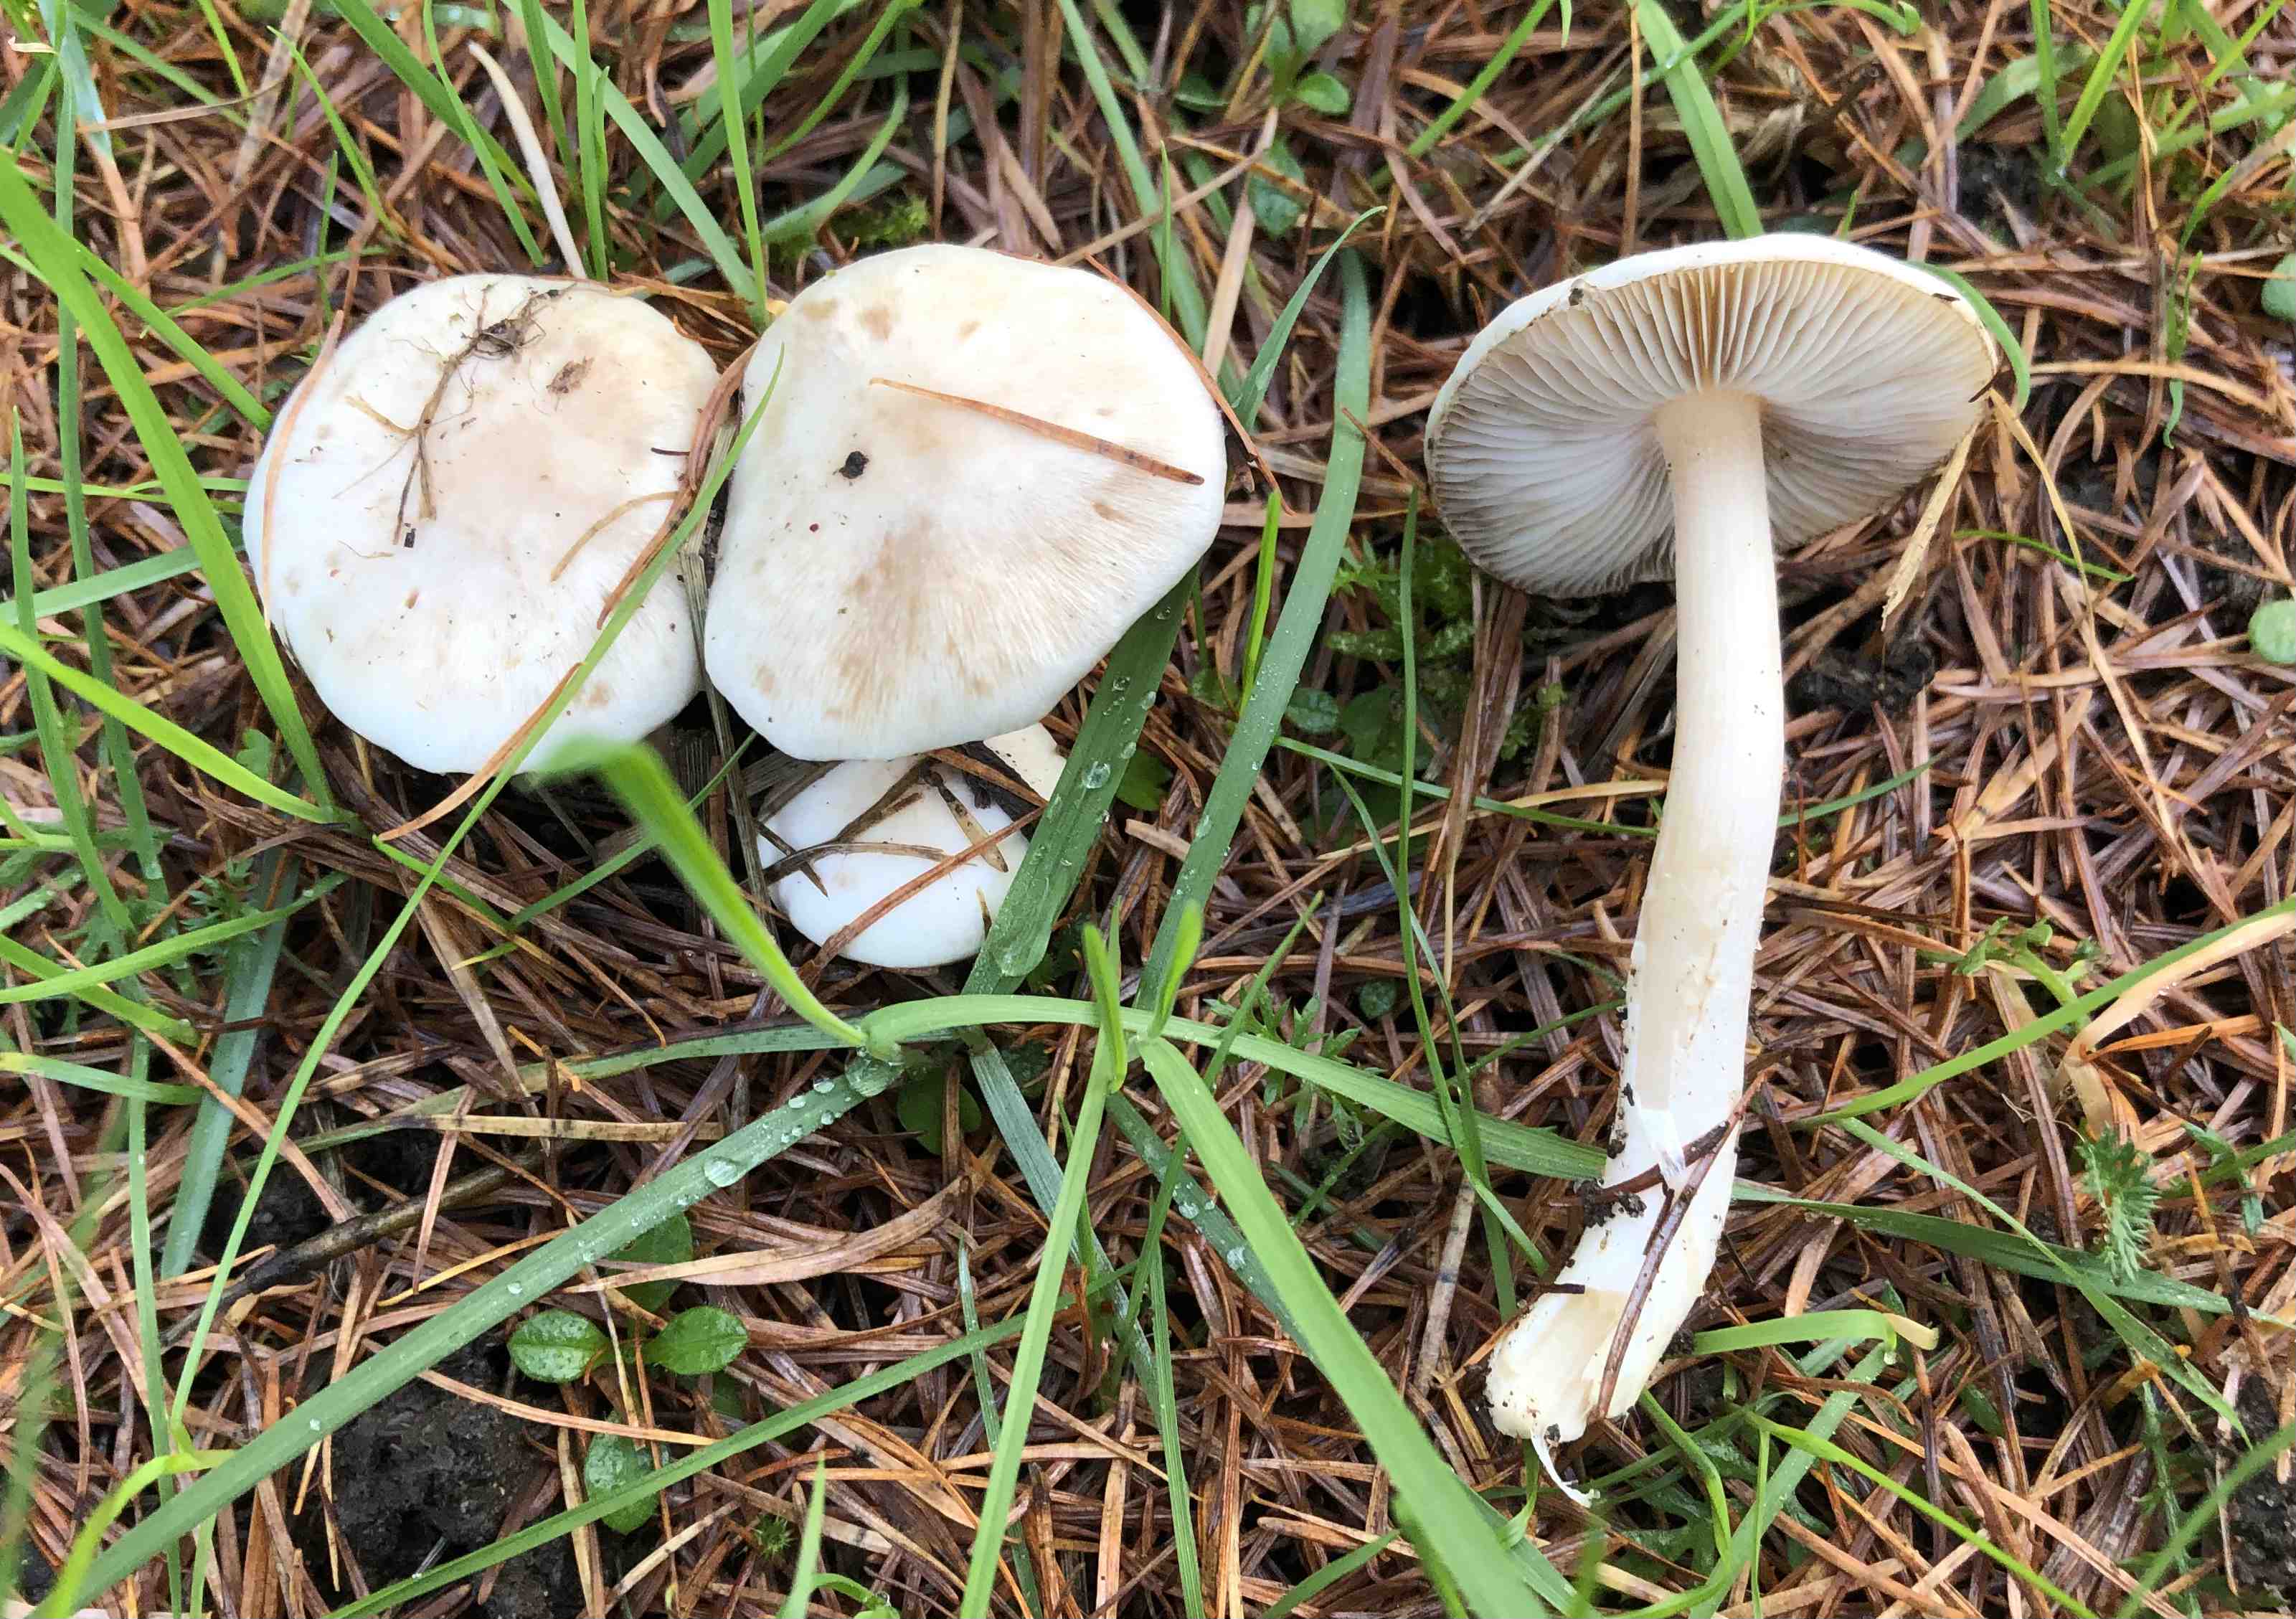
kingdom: Fungi
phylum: Basidiomycota
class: Agaricomycetes
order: Agaricales
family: Inocybaceae
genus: Inocybe
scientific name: Inocybe
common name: trævlhat
